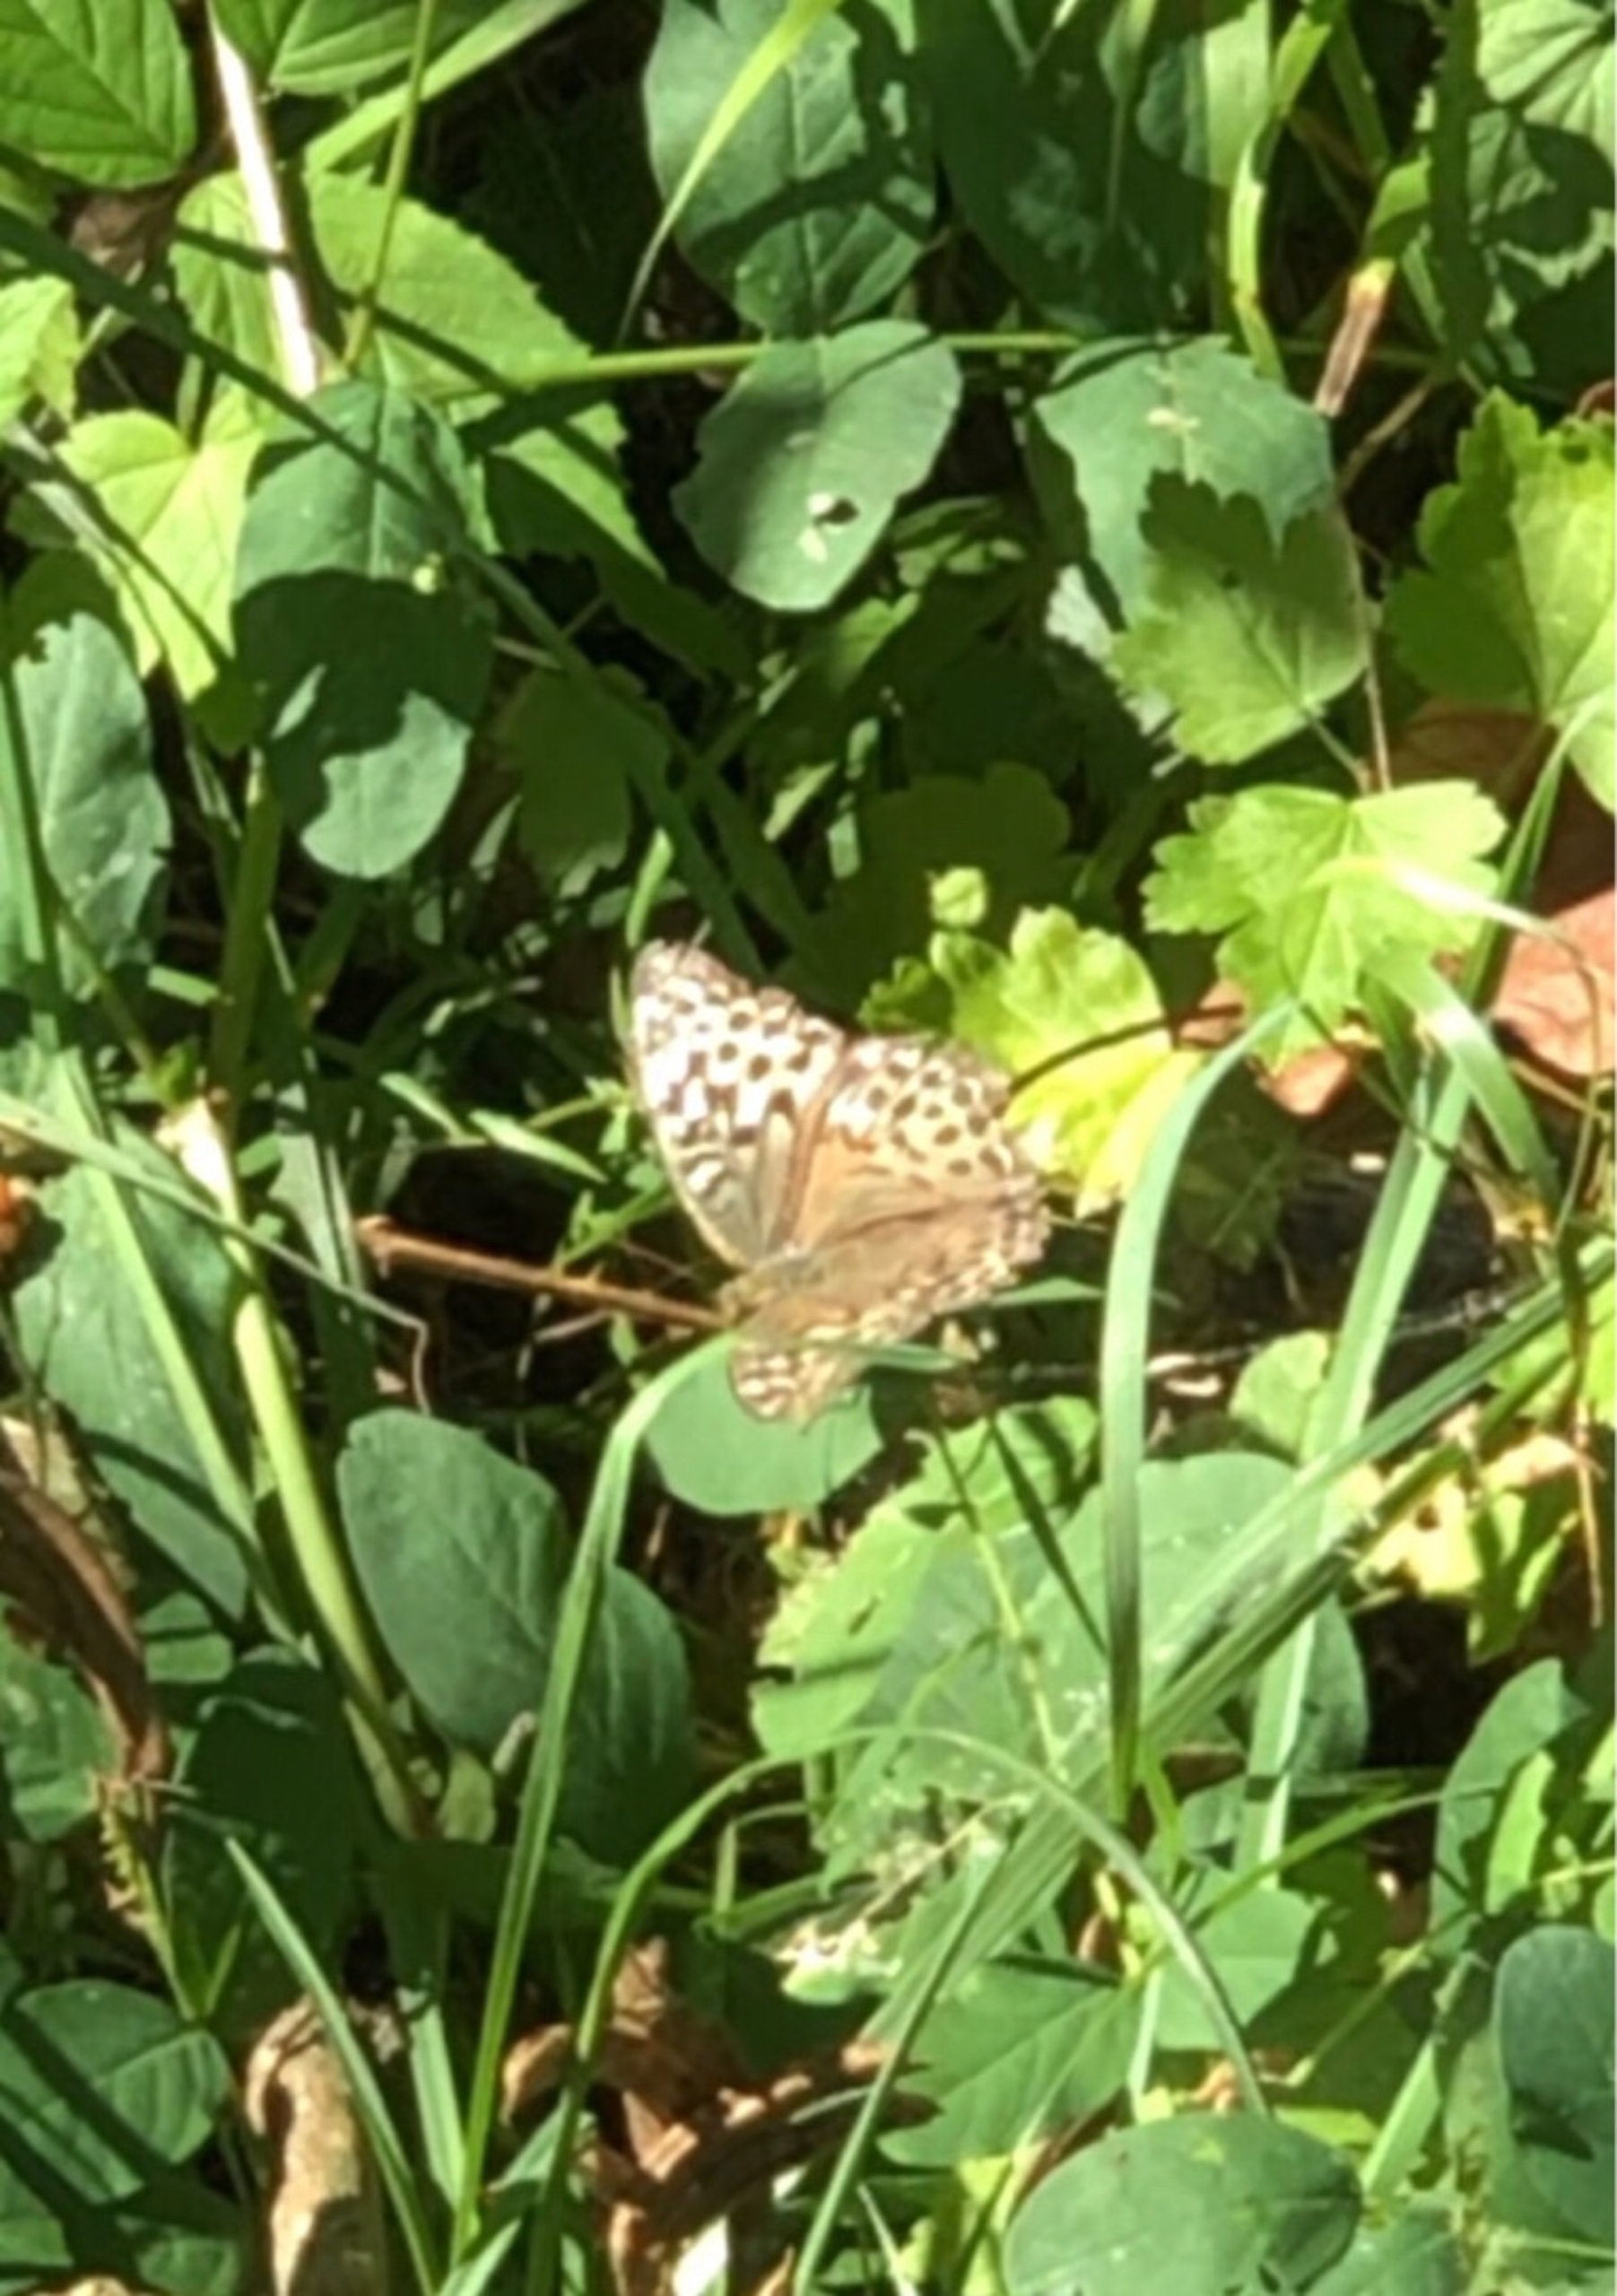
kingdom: Animalia
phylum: Arthropoda
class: Insecta
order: Lepidoptera
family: Nymphalidae
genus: Issoria
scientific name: Issoria lathonia
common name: Storplettet perlemorsommerfugl
